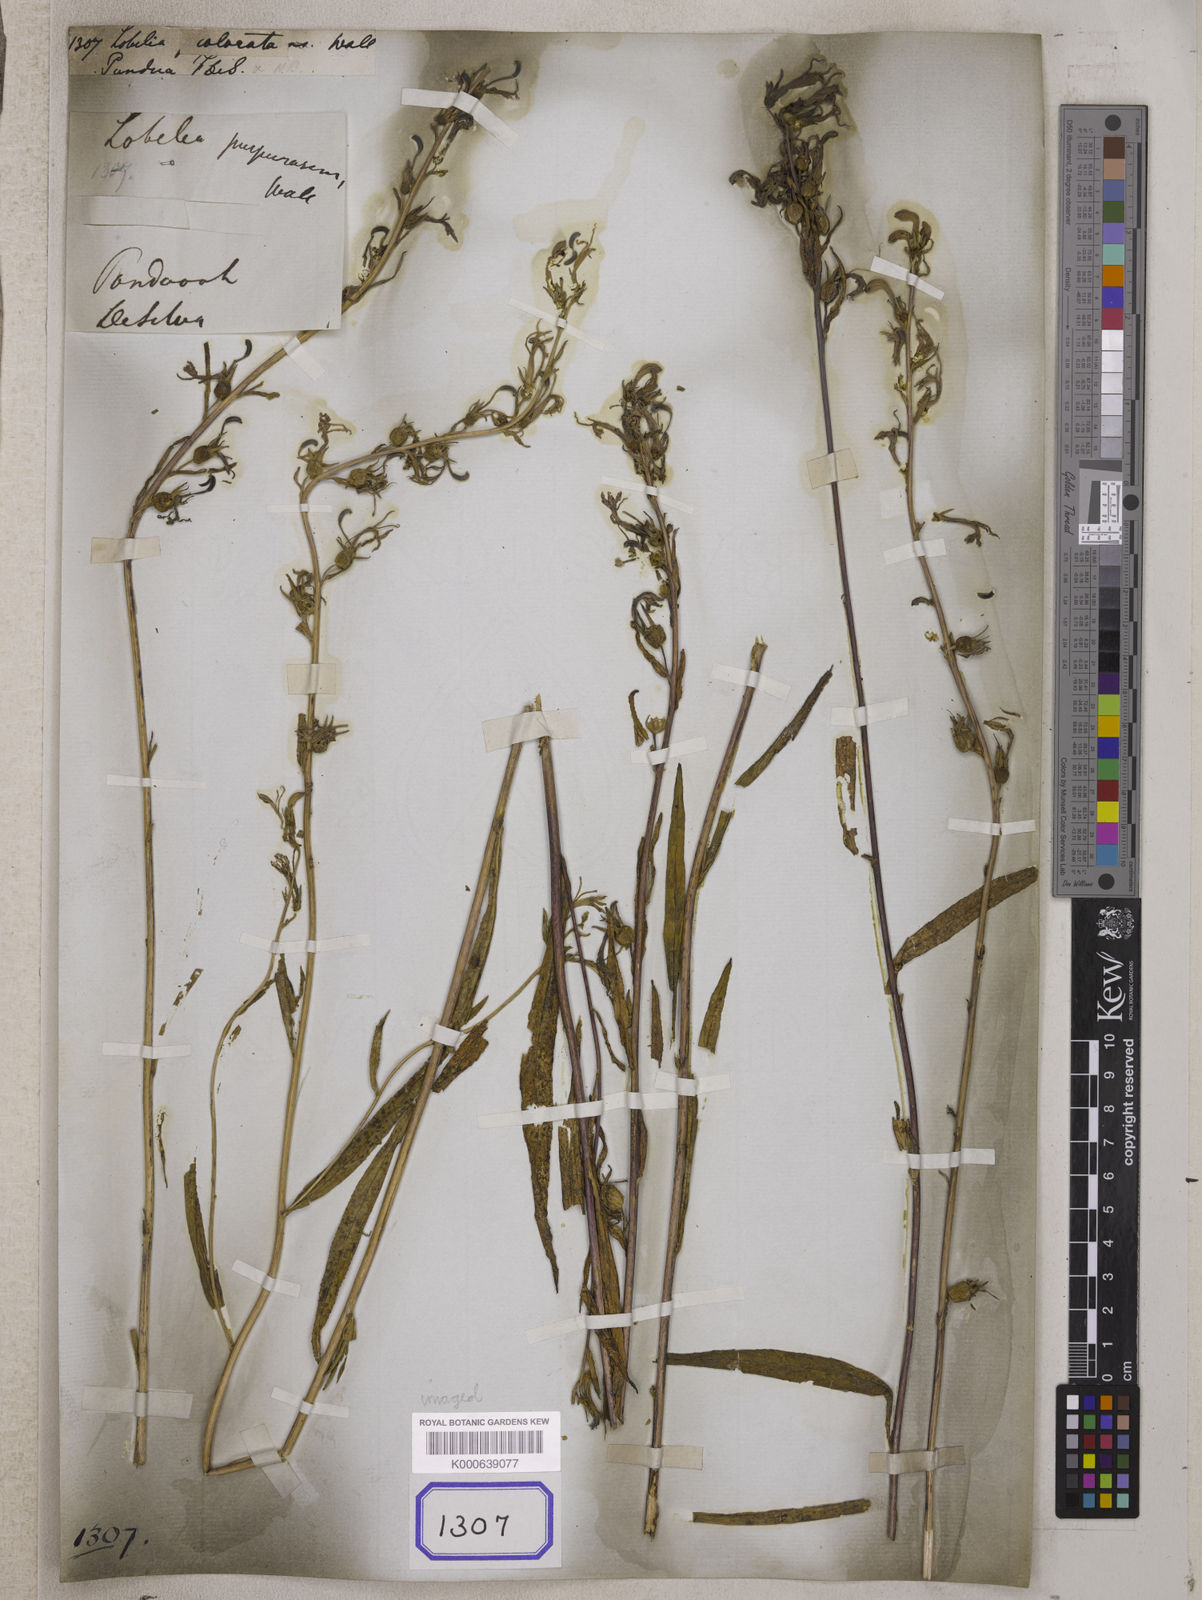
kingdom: Plantae
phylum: Tracheophyta
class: Magnoliopsida
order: Asterales
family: Campanulaceae
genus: Lobelia
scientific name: Lobelia nicotianifolia
